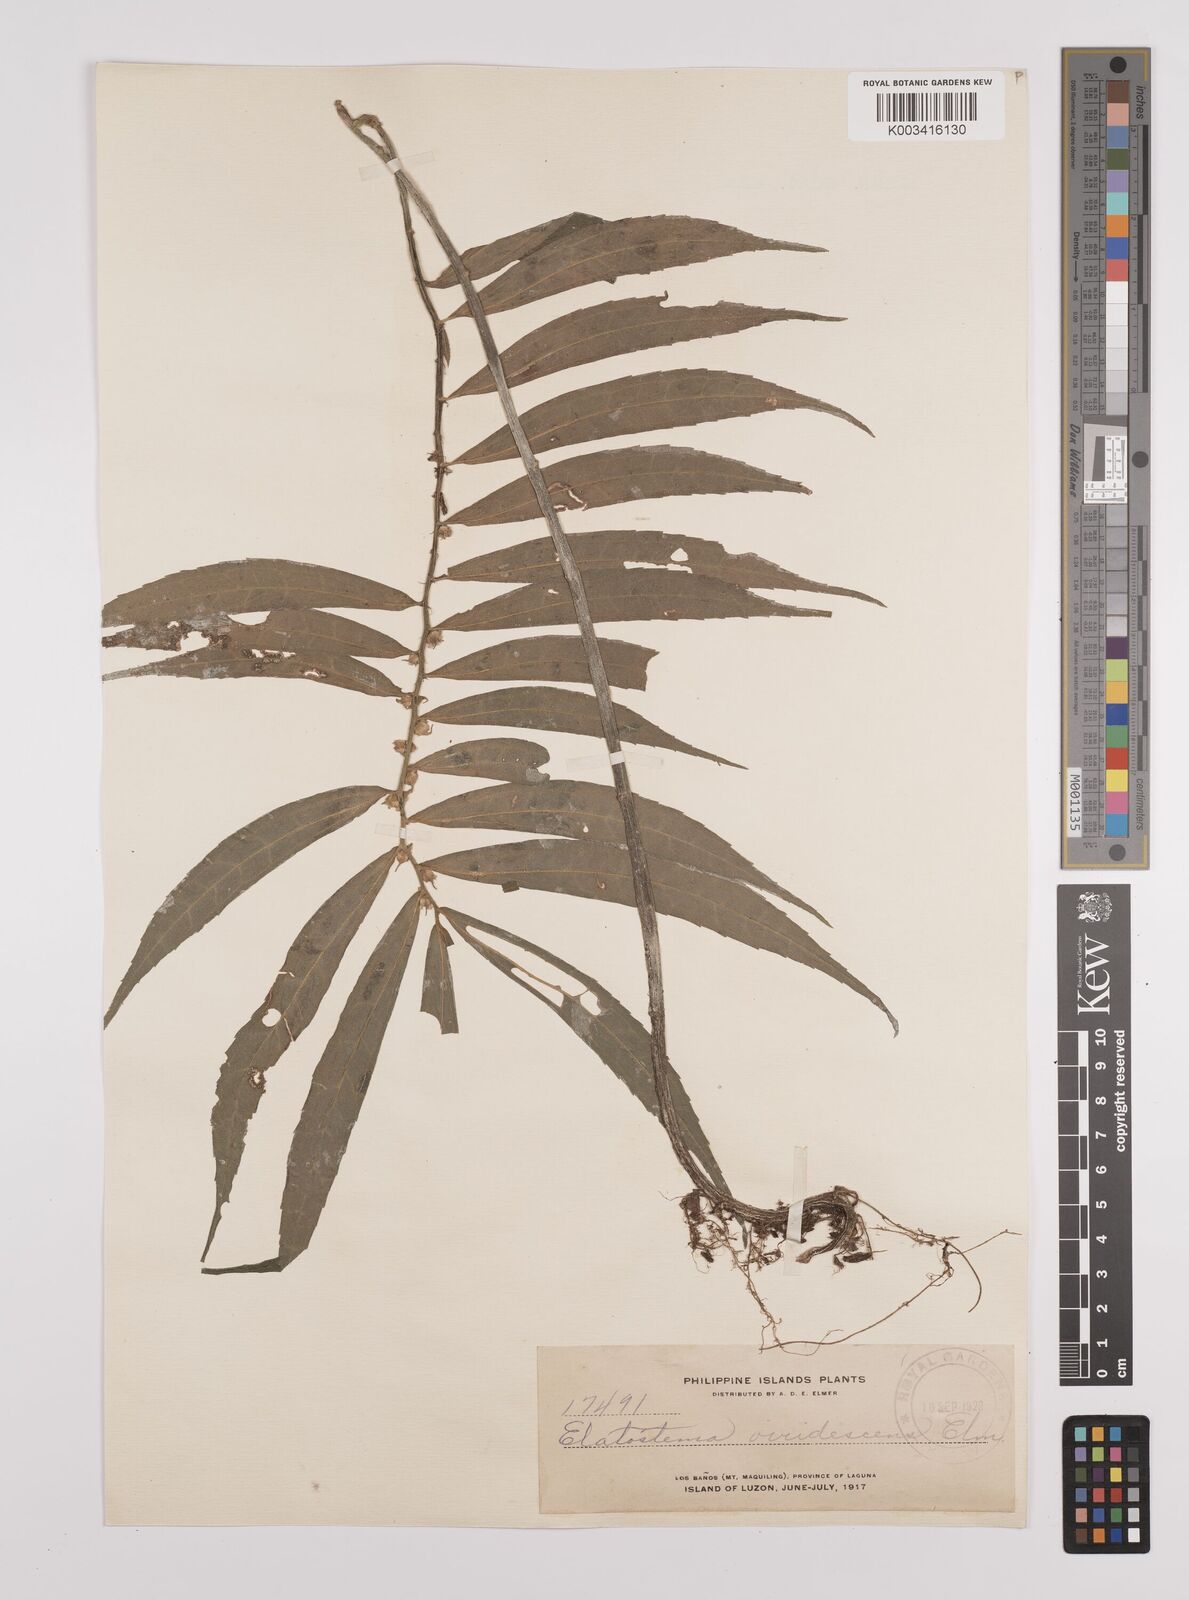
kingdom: Plantae
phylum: Tracheophyta
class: Magnoliopsida
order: Rosales
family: Urticaceae
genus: Elatostema
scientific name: Elatostema viridescens
